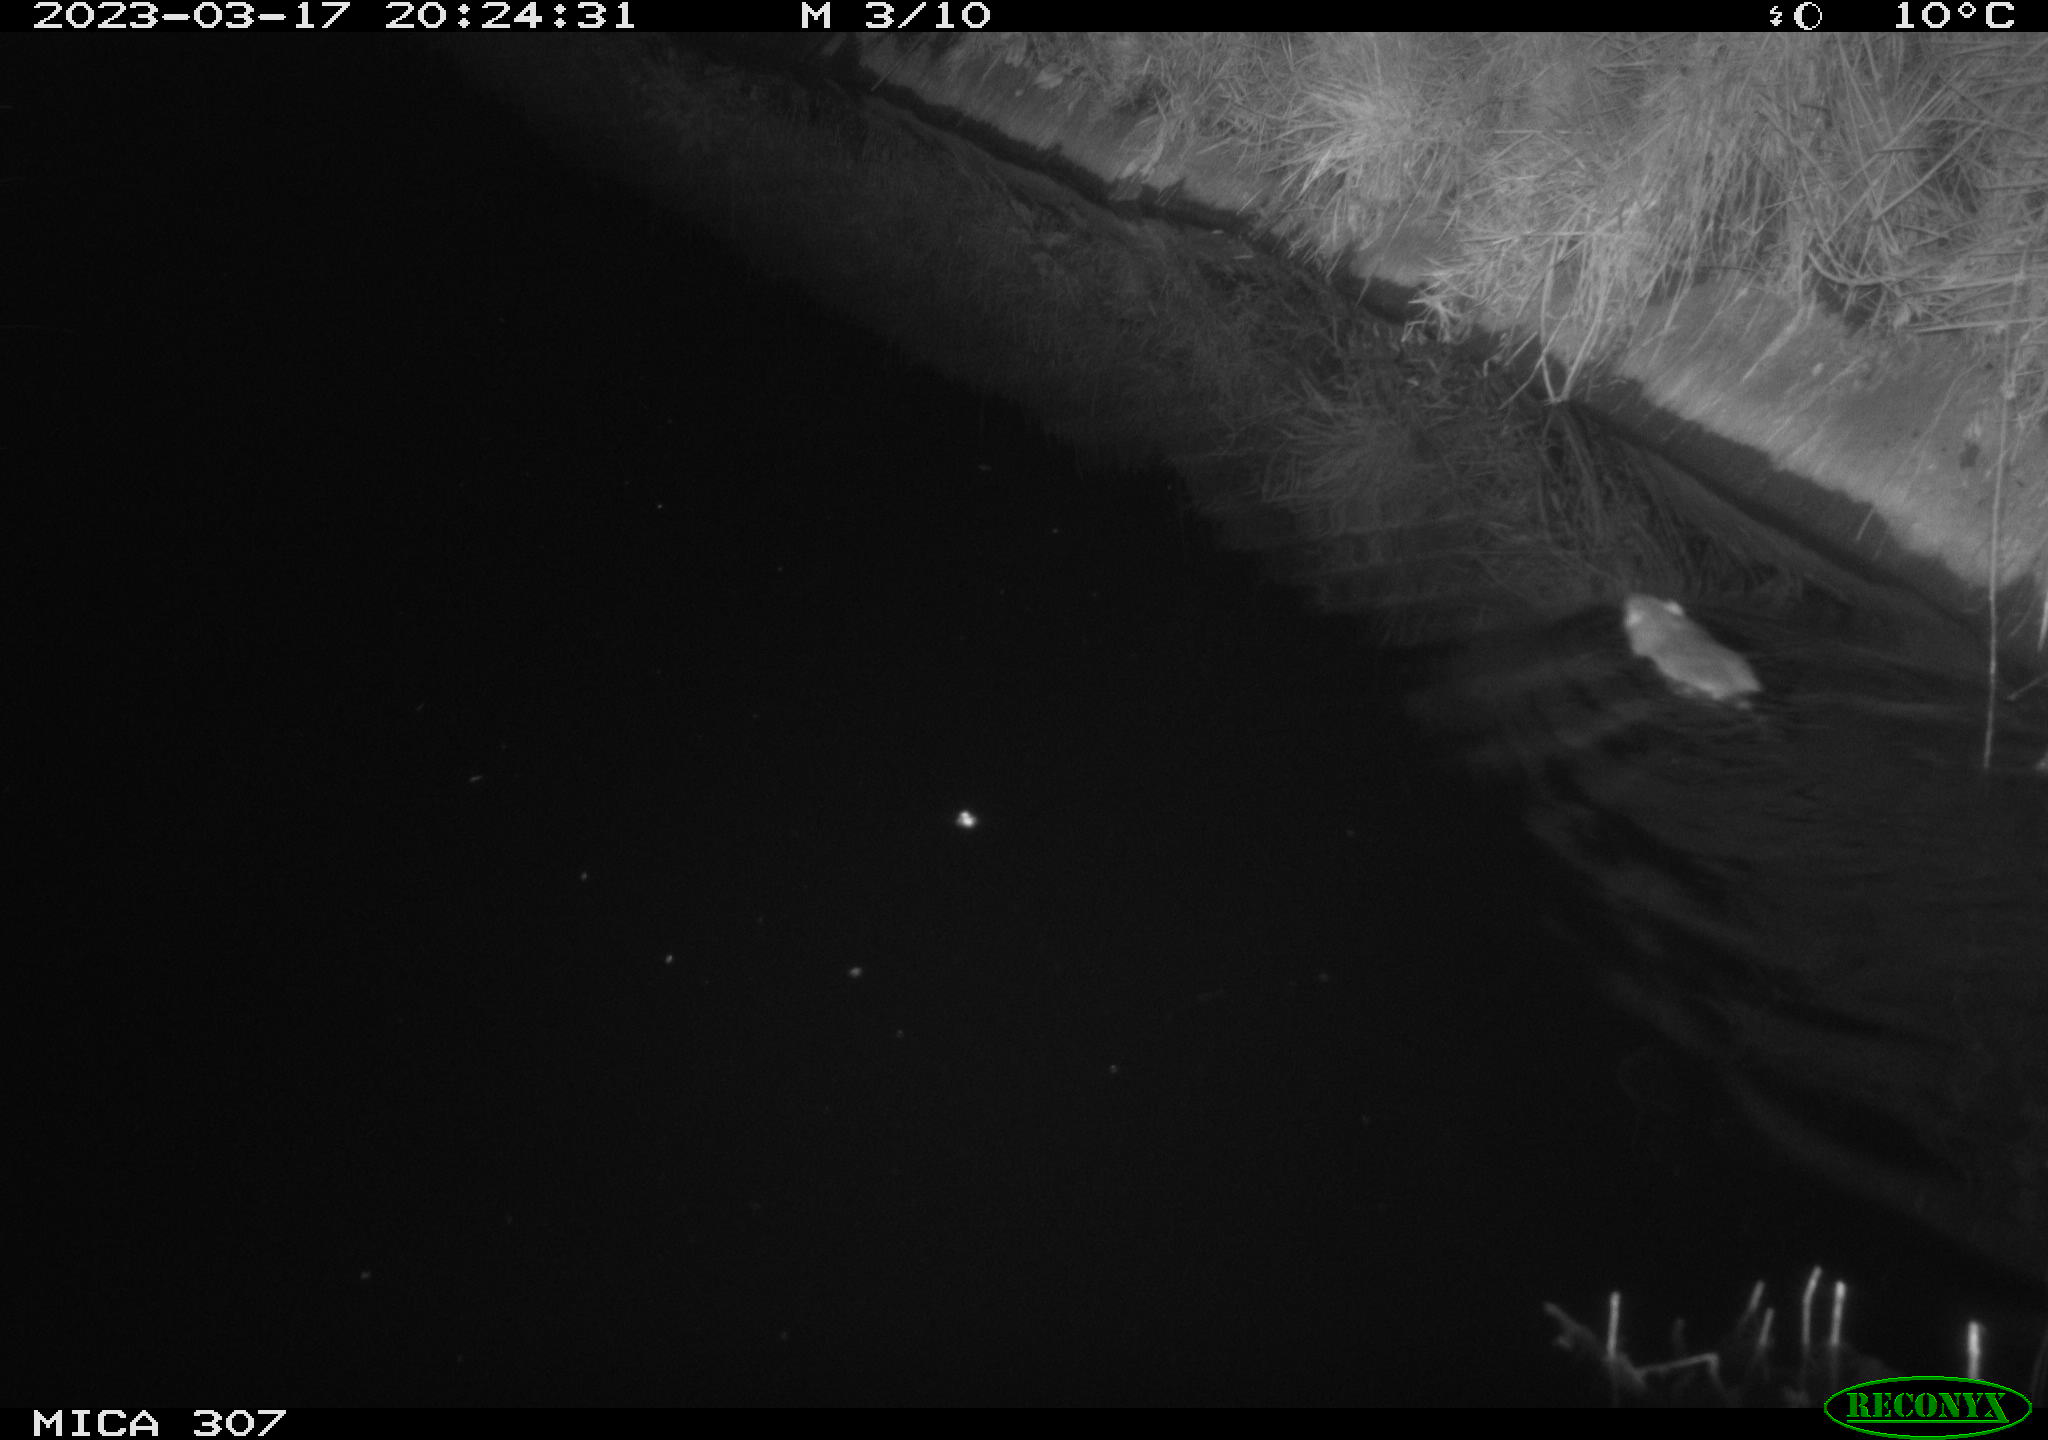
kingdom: Animalia
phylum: Chordata
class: Mammalia
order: Rodentia
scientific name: Rodentia
